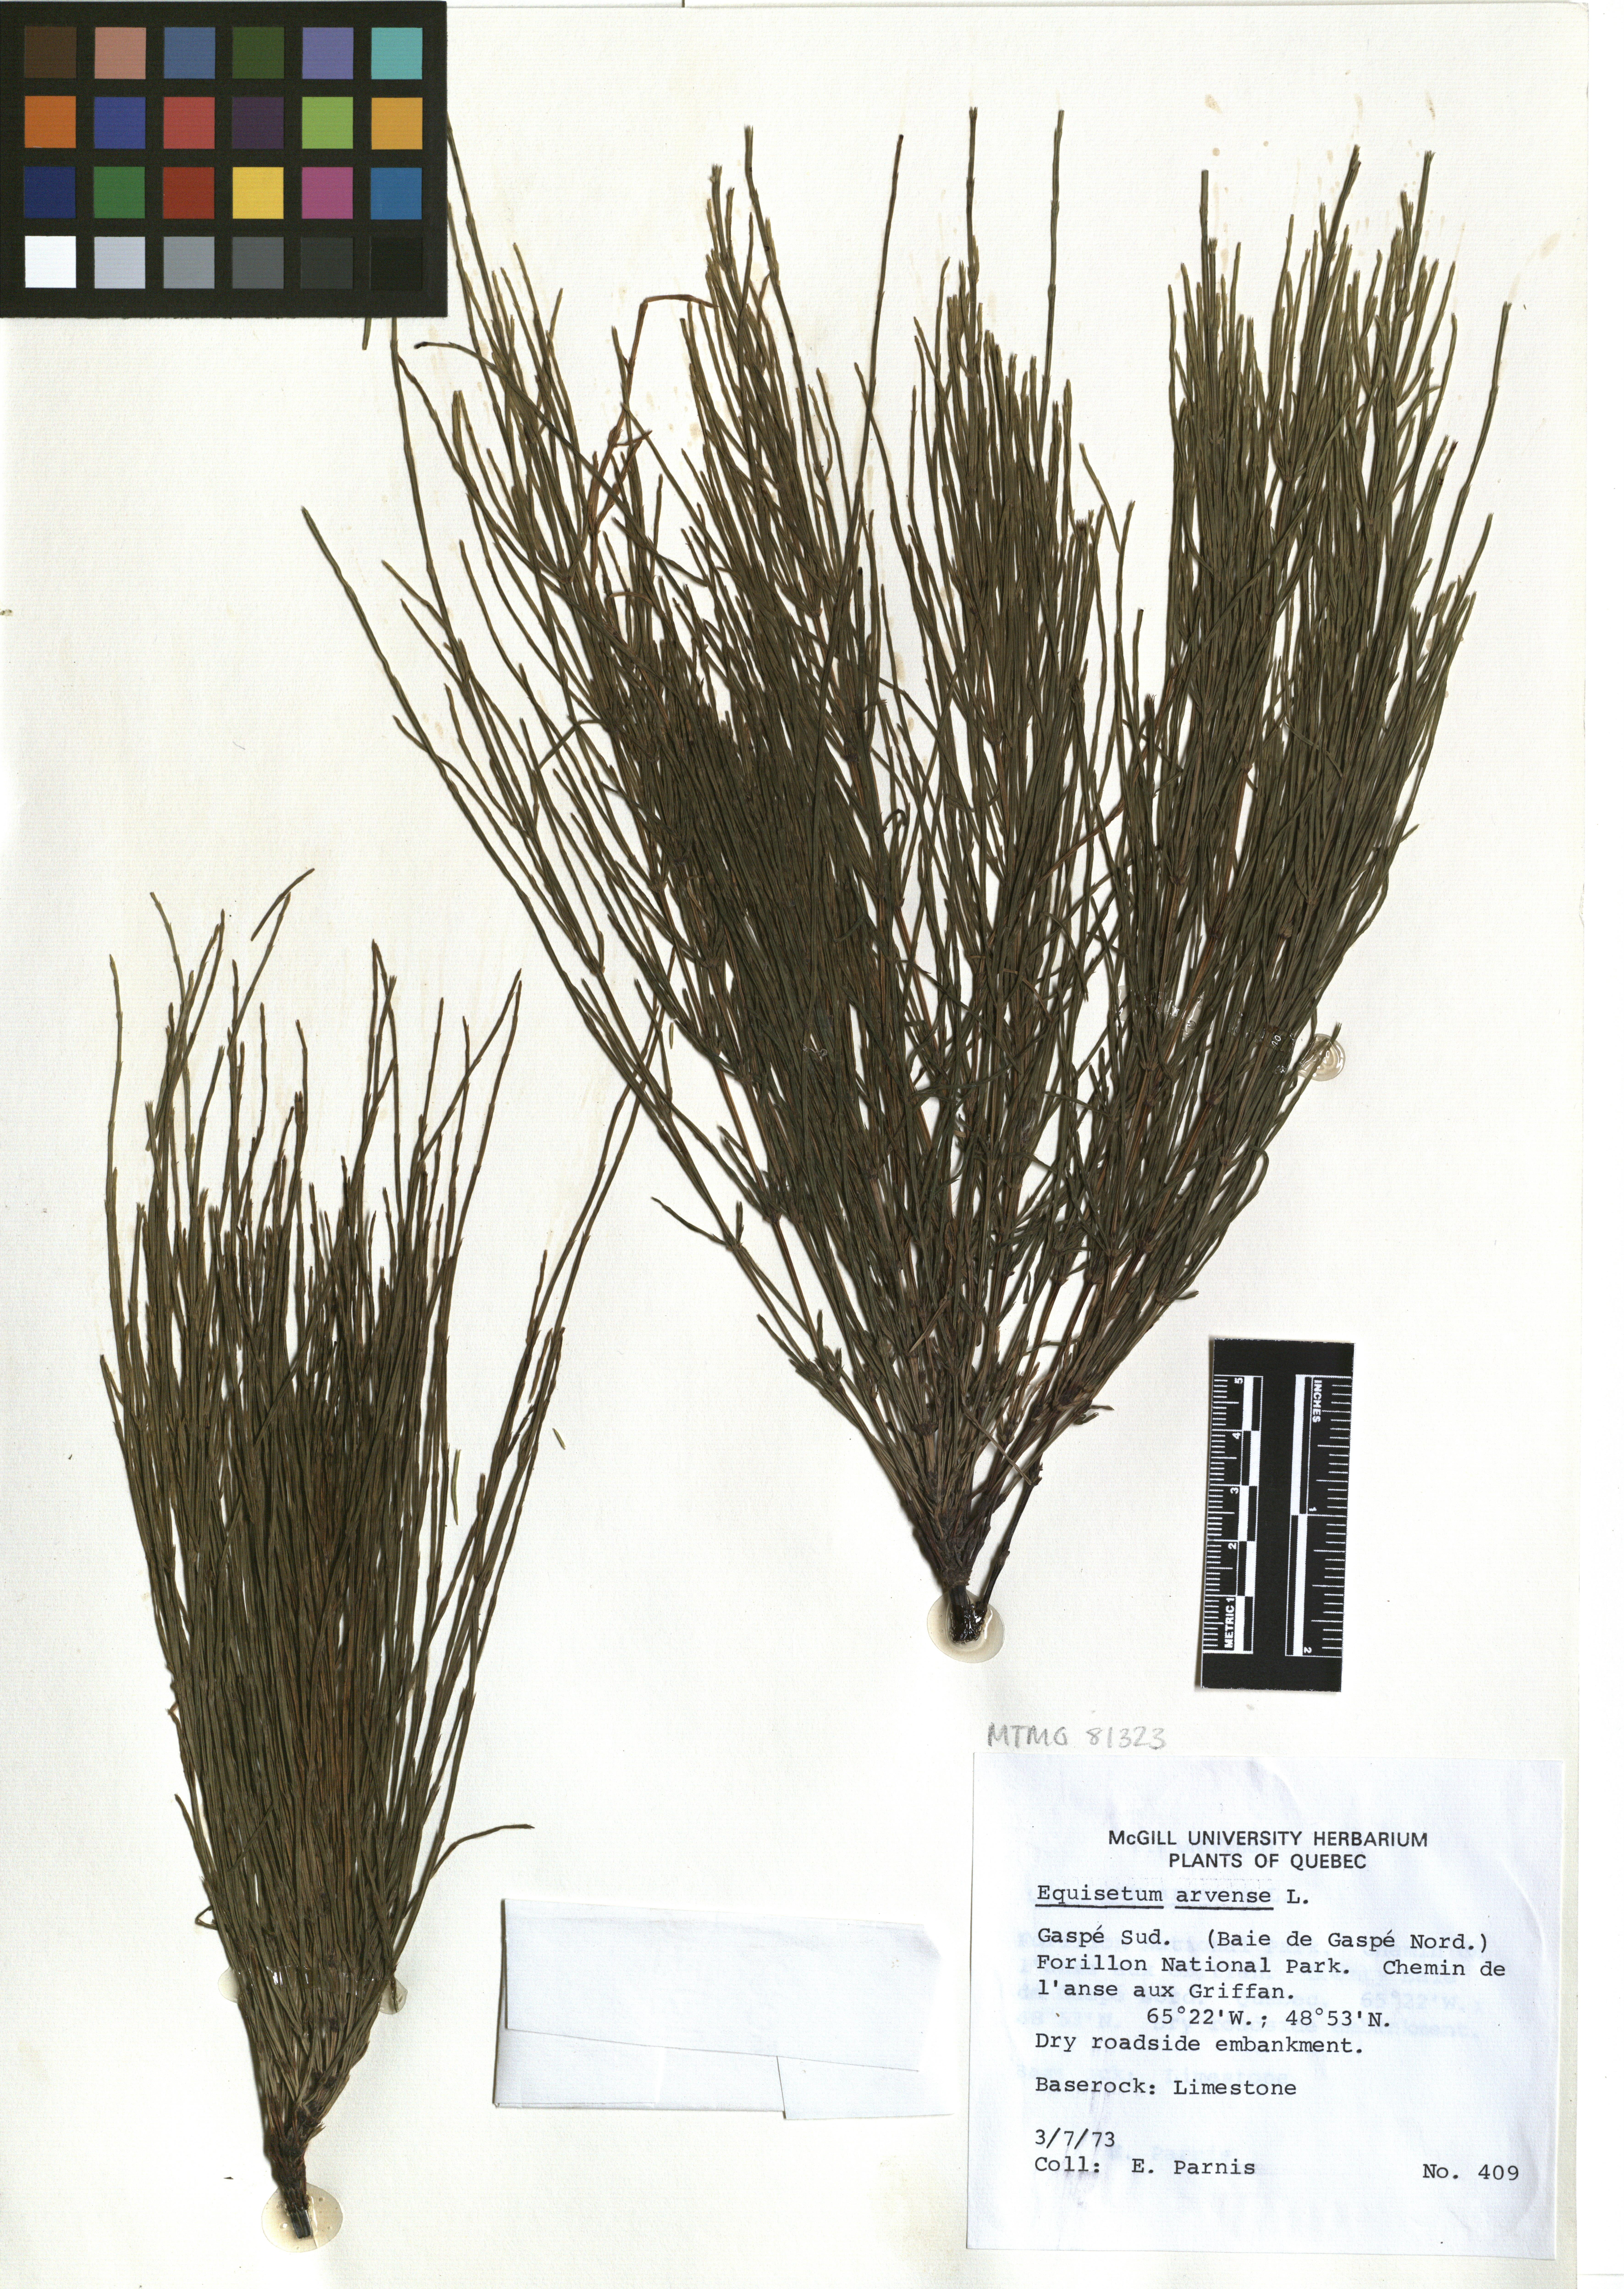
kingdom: Plantae
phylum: Tracheophyta
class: Polypodiopsida
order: Equisetales
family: Equisetaceae
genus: Equisetum
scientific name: Equisetum arvense
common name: Field horsetail
